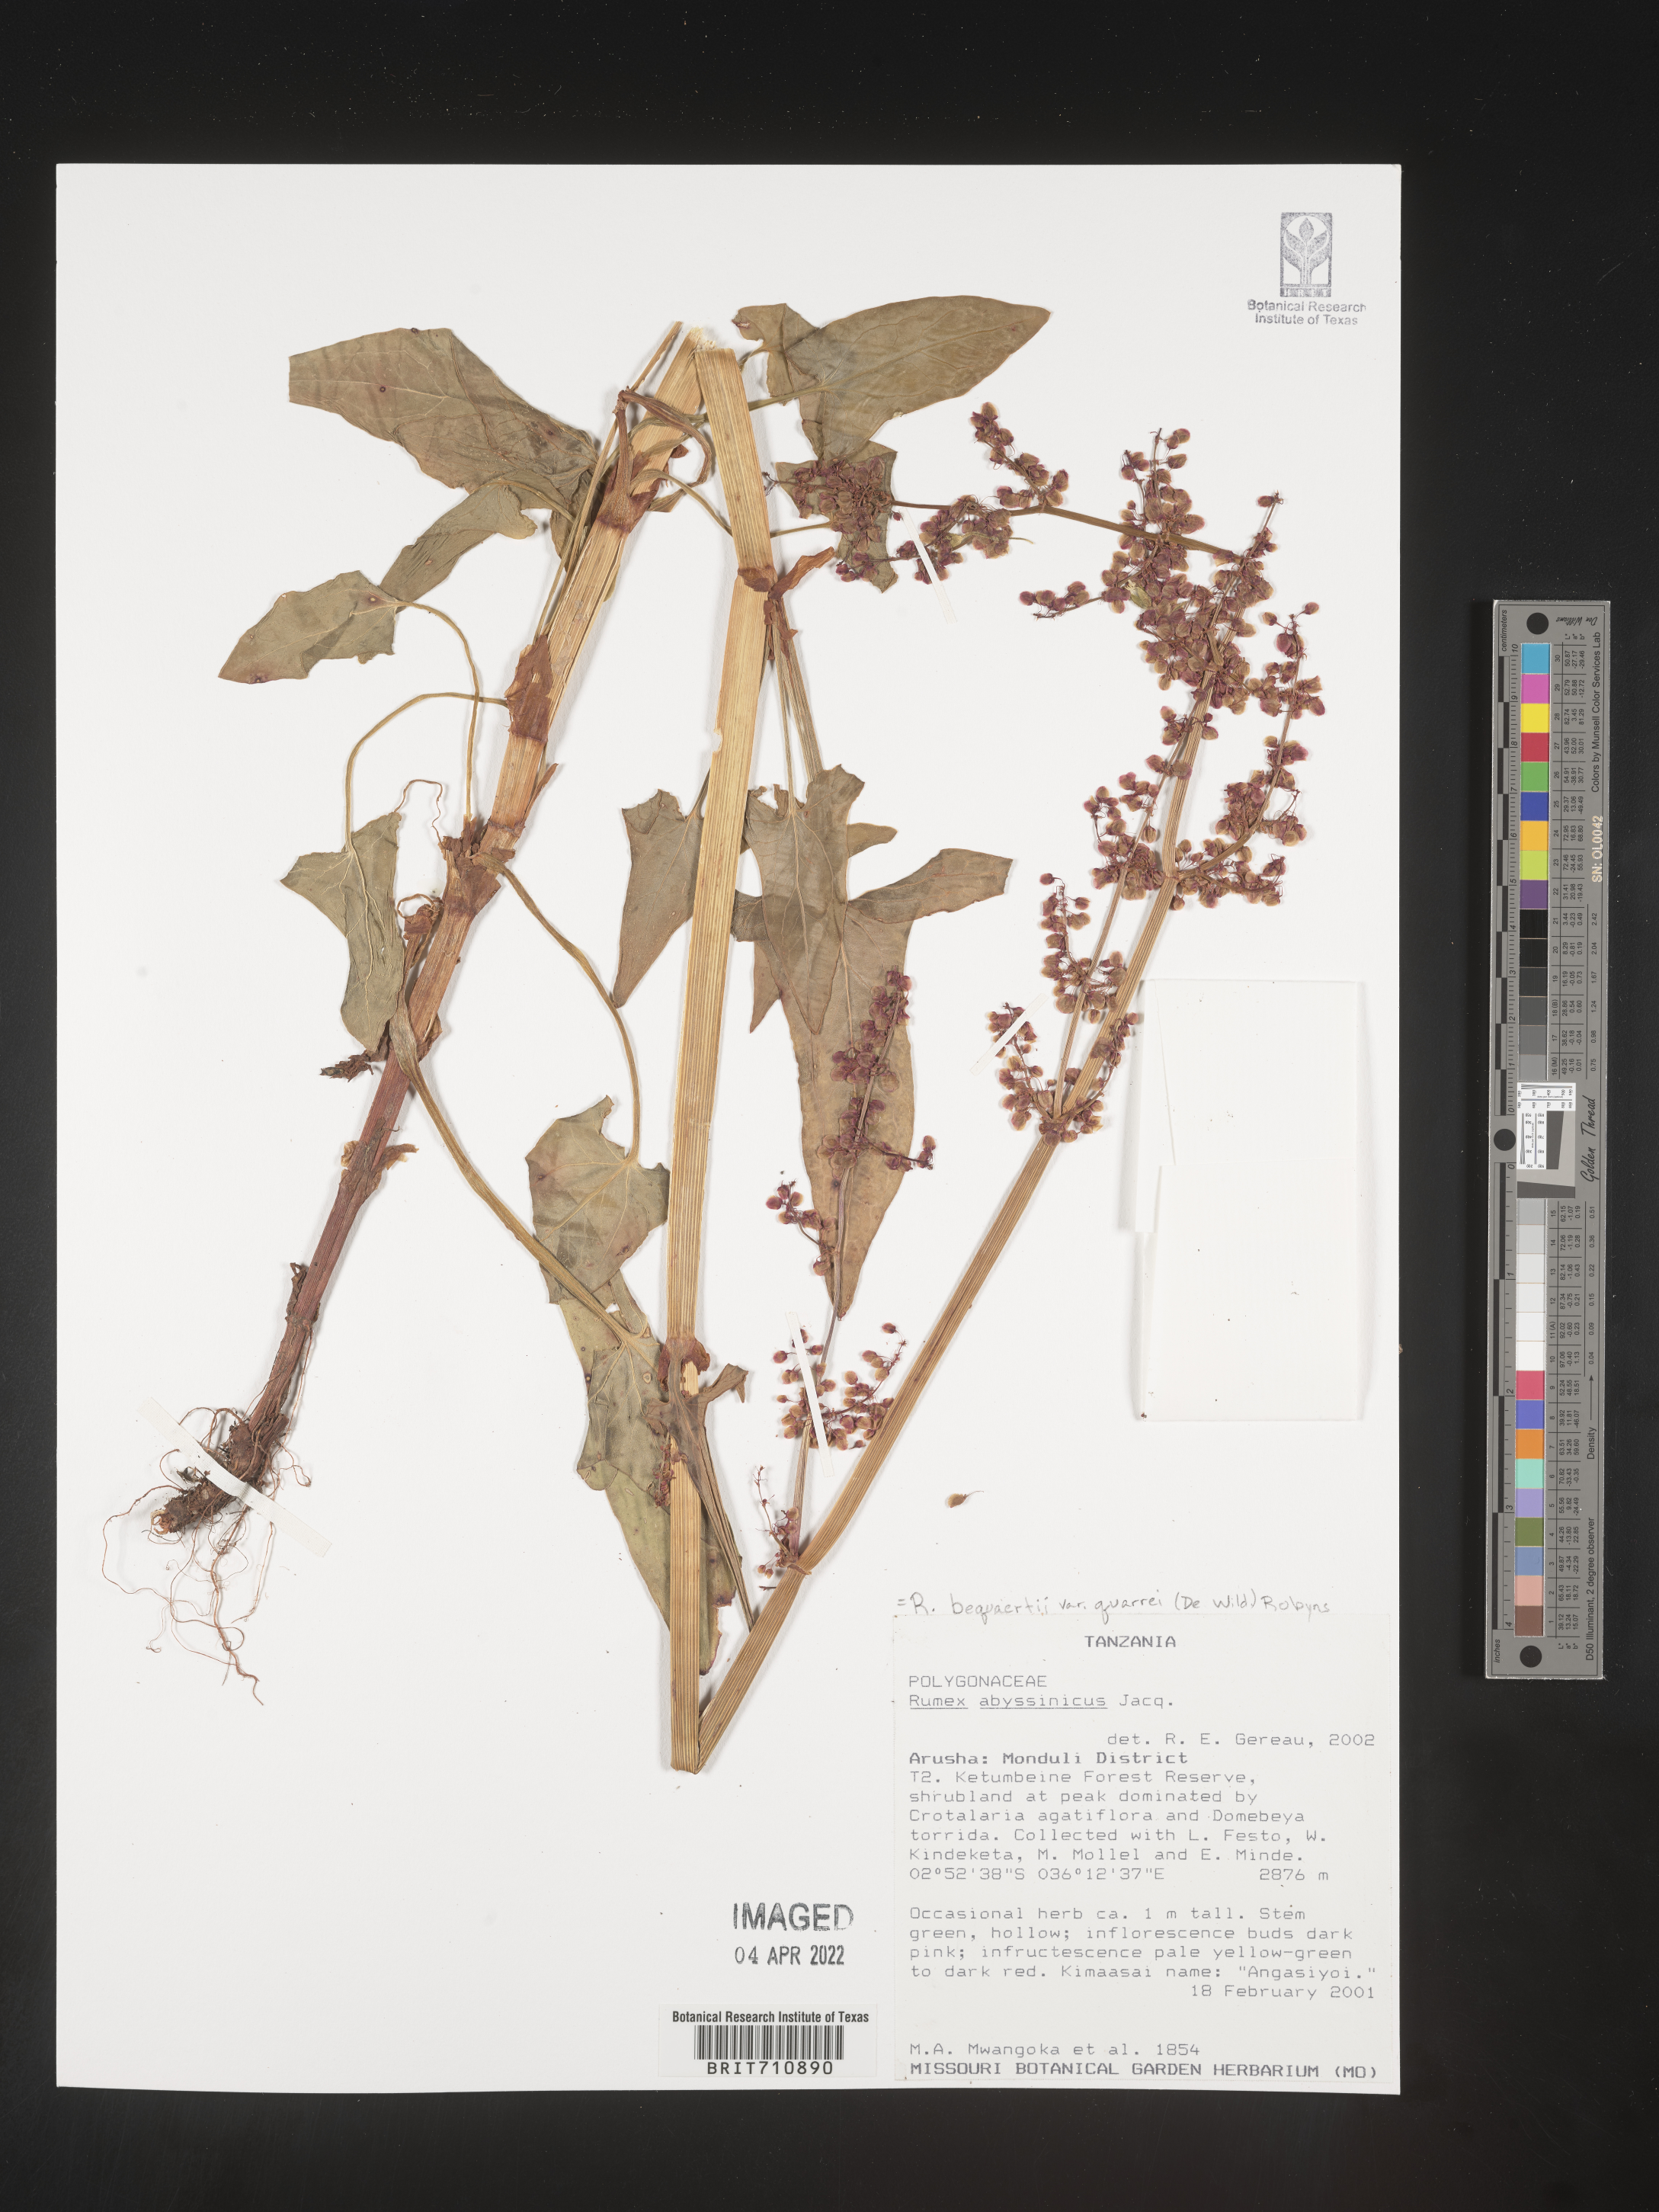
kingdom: Plantae
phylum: Tracheophyta
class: Magnoliopsida
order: Caryophyllales
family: Polygonaceae
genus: Rumex
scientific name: Rumex
